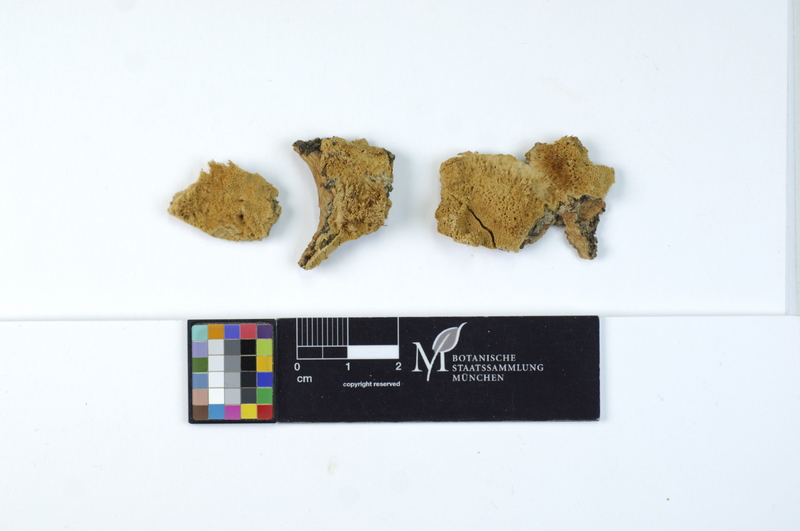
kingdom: Fungi
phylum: Basidiomycota
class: Agaricomycetes
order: Hymenochaetales
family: Oxyporaceae
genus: Oxyporus
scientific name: Oxyporus corticola
